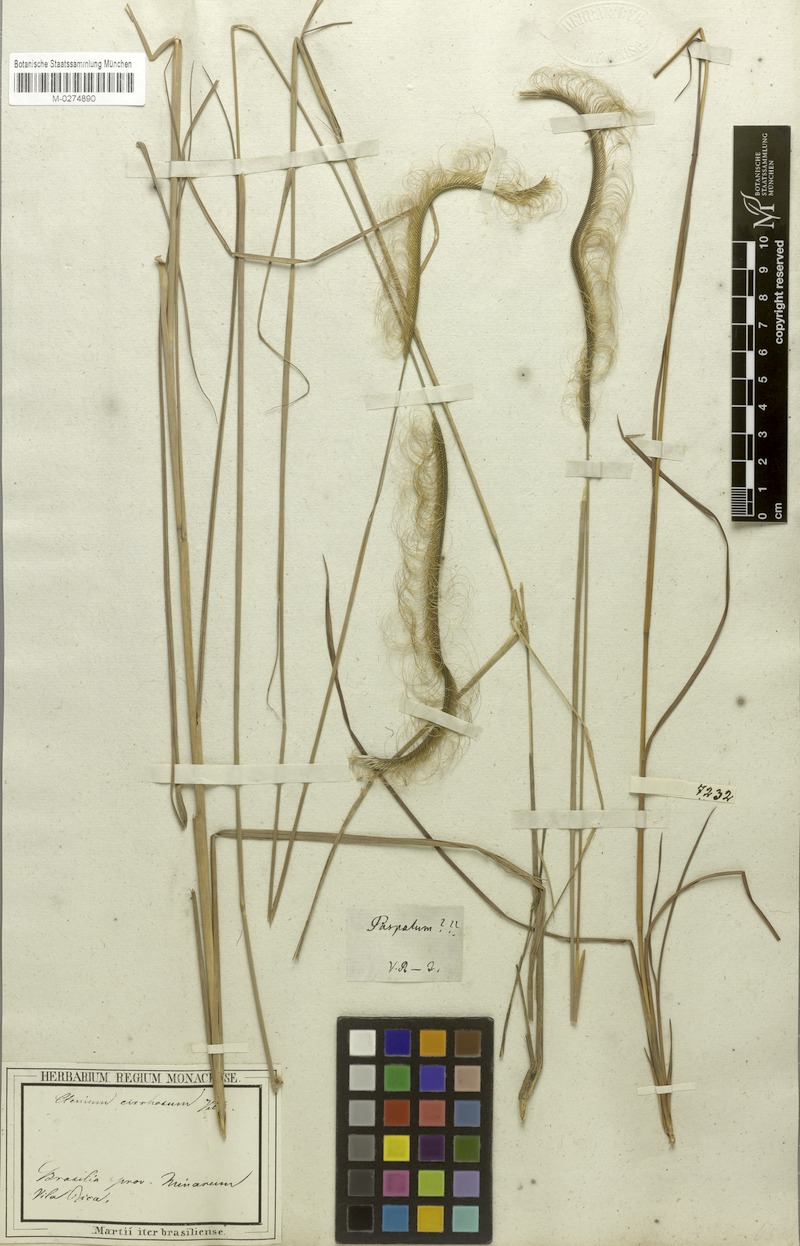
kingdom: Plantae
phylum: Tracheophyta
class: Liliopsida
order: Poales
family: Poaceae
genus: Ctenium
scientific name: Ctenium cirrhosum
